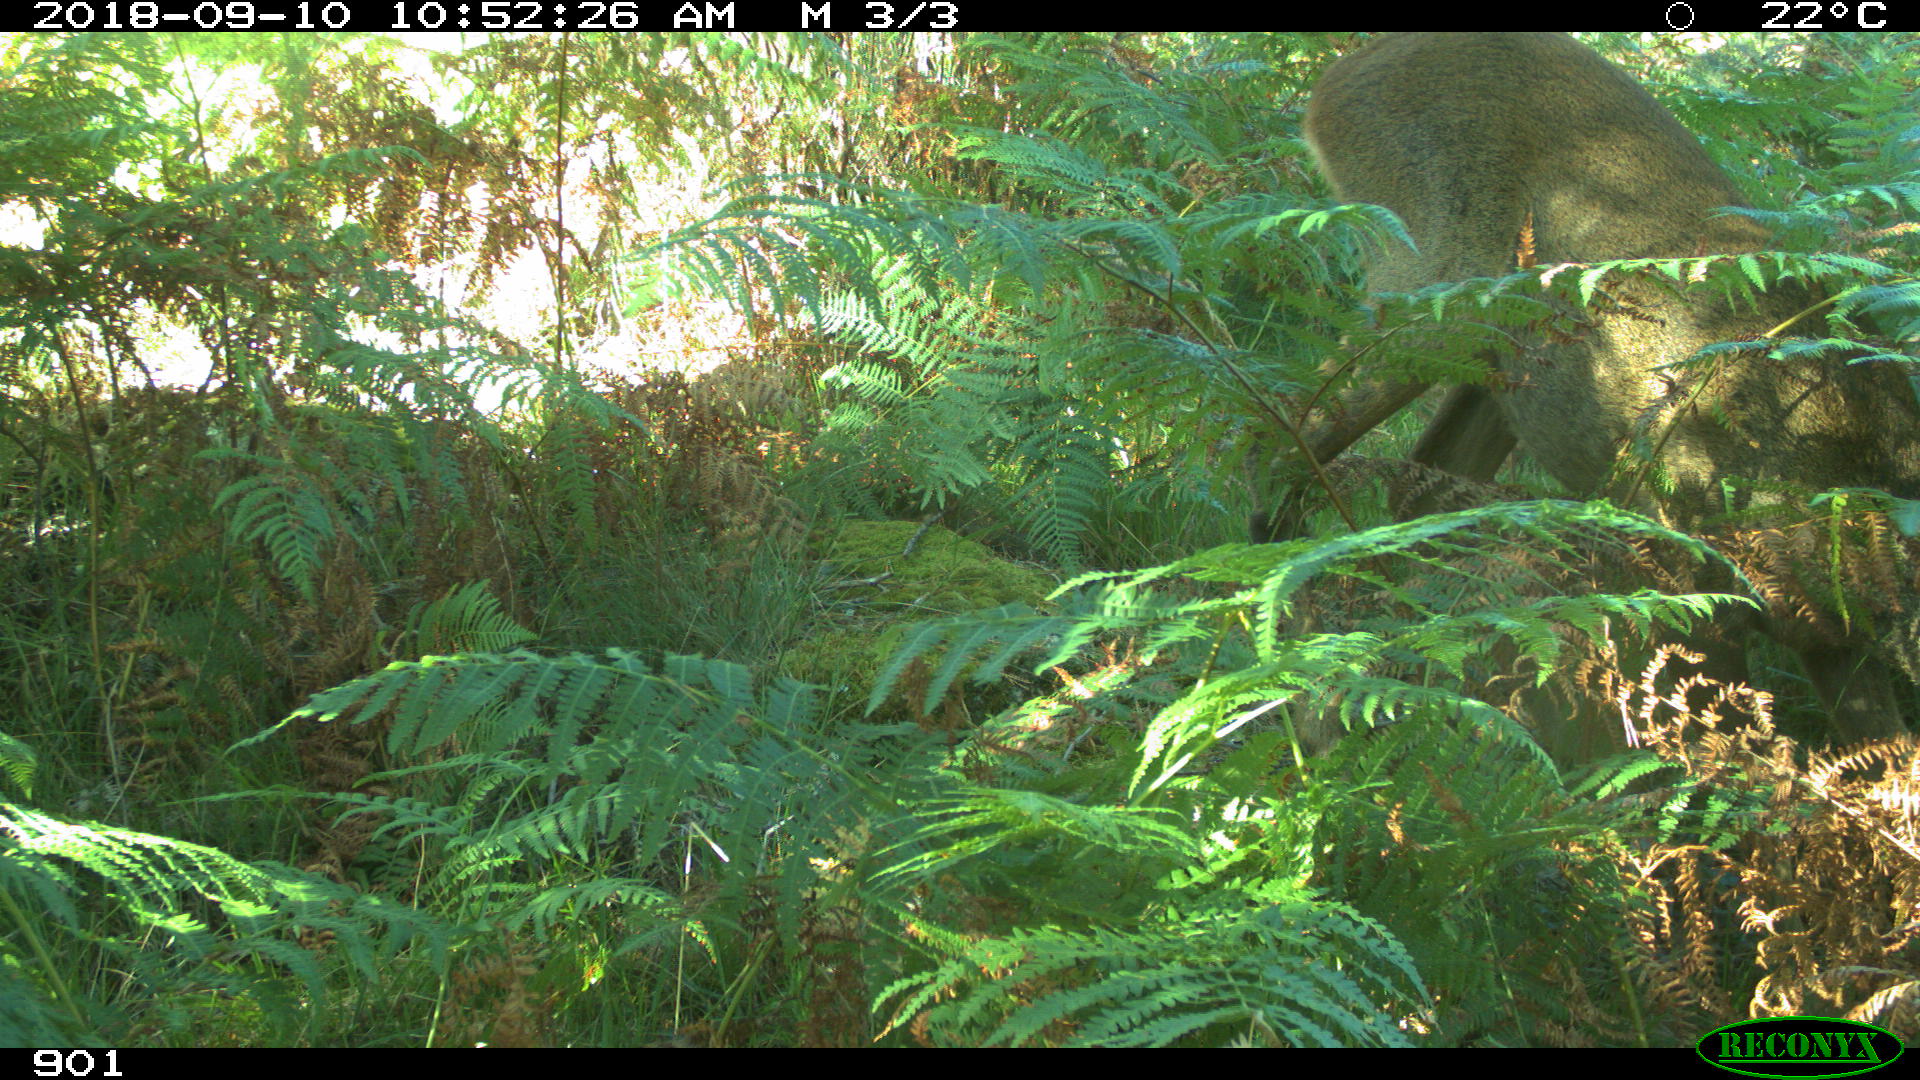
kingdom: Animalia
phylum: Chordata
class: Mammalia
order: Artiodactyla
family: Cervidae
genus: Capreolus
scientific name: Capreolus capreolus
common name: Western roe deer
